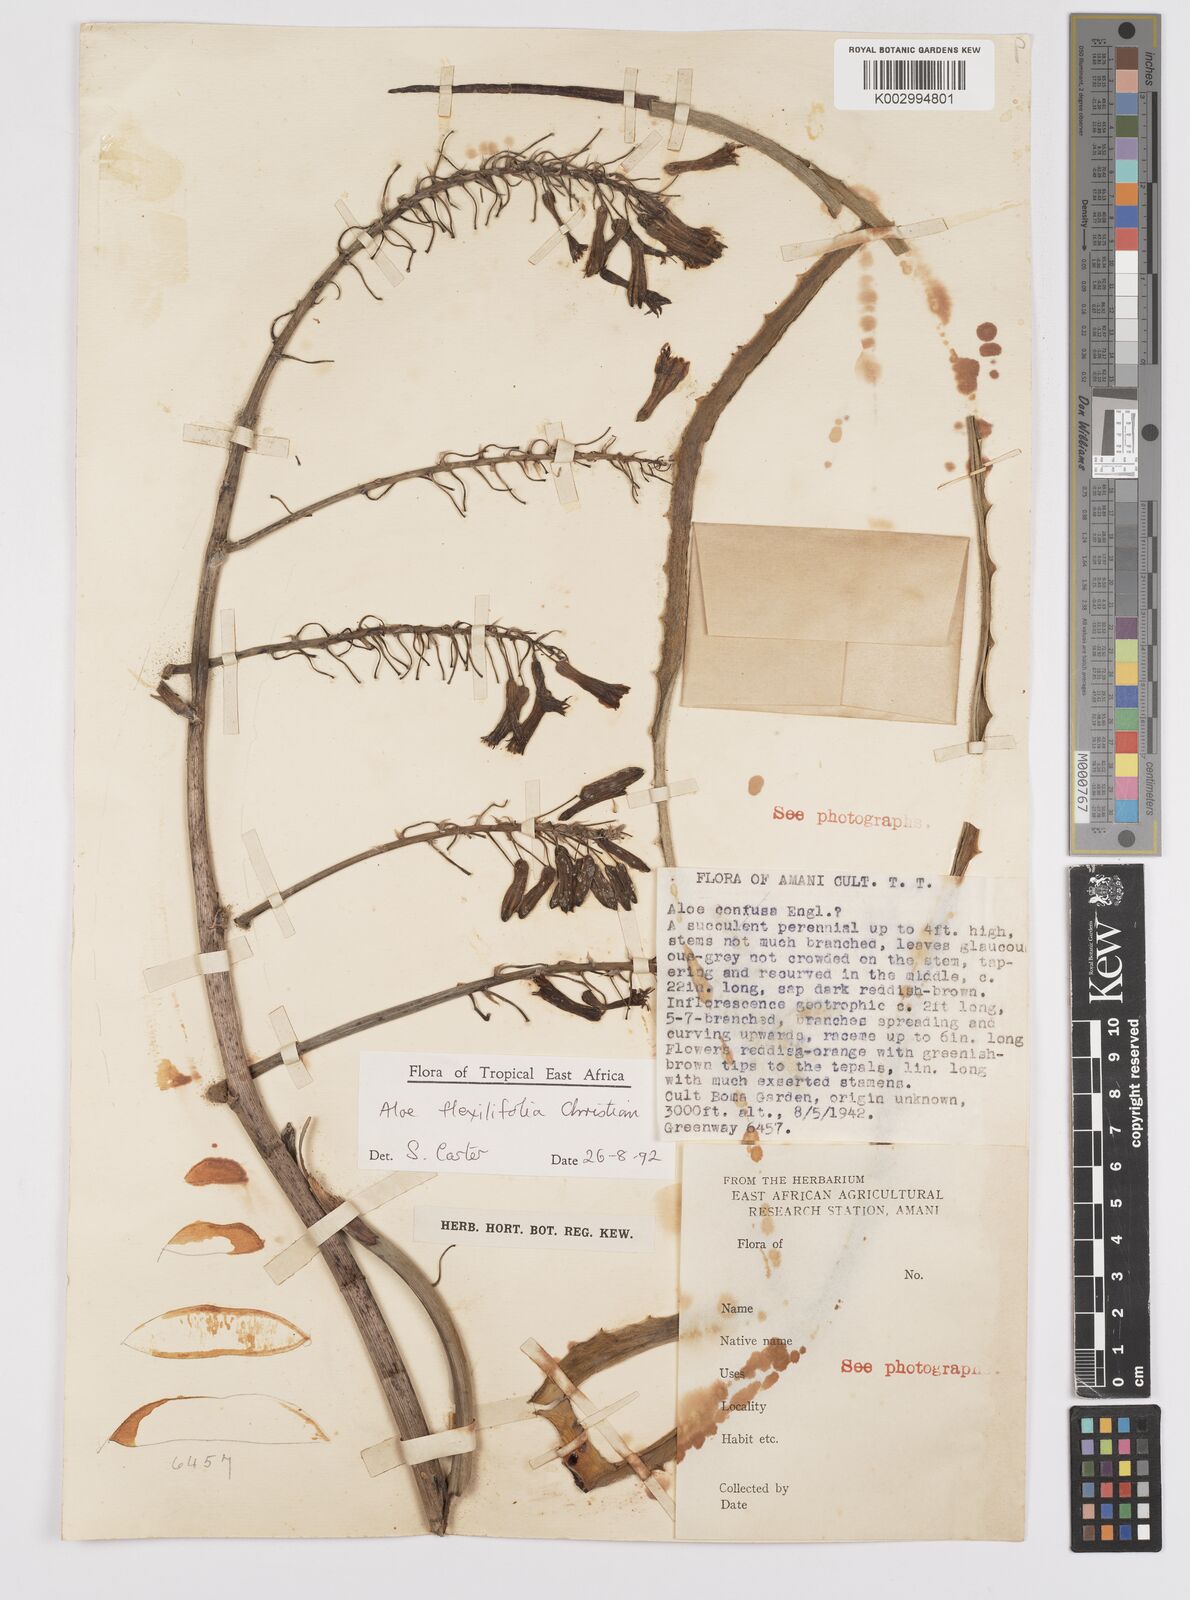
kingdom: Plantae
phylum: Tracheophyta
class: Liliopsida
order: Asparagales
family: Asphodelaceae
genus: Aloe
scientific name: Aloe flexilifolia
